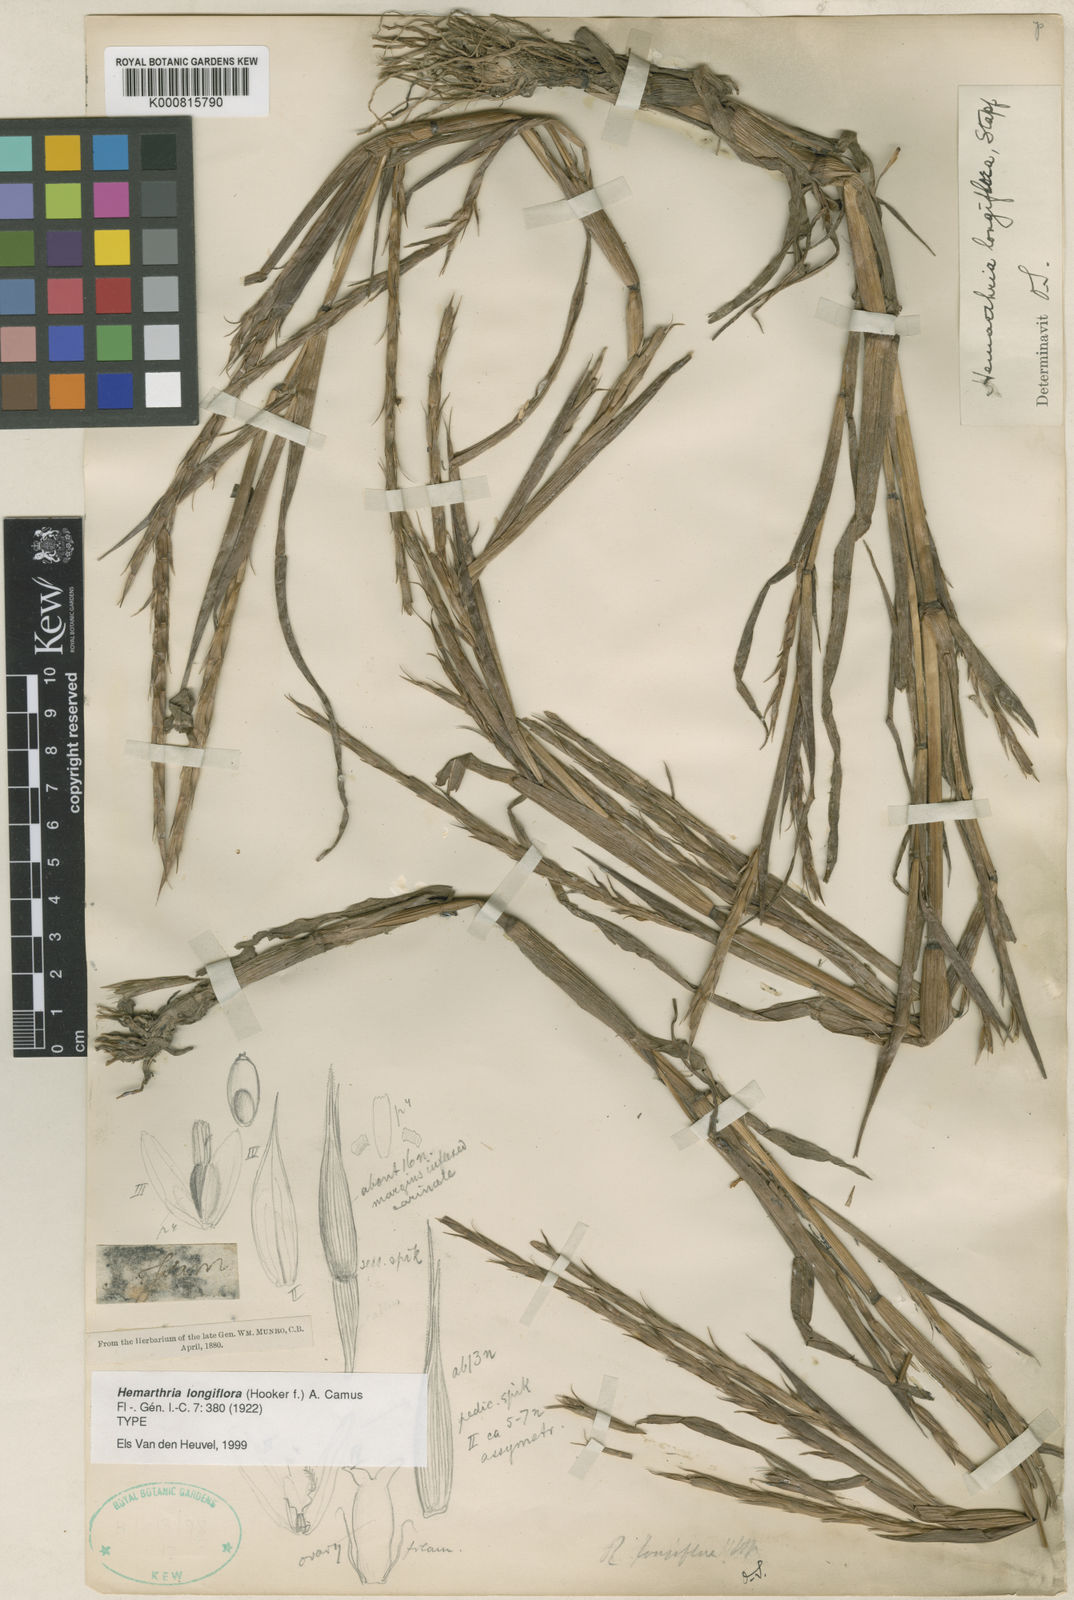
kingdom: Plantae
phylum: Tracheophyta
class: Liliopsida
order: Poales
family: Poaceae
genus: Hemarthria
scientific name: Hemarthria longiflora
